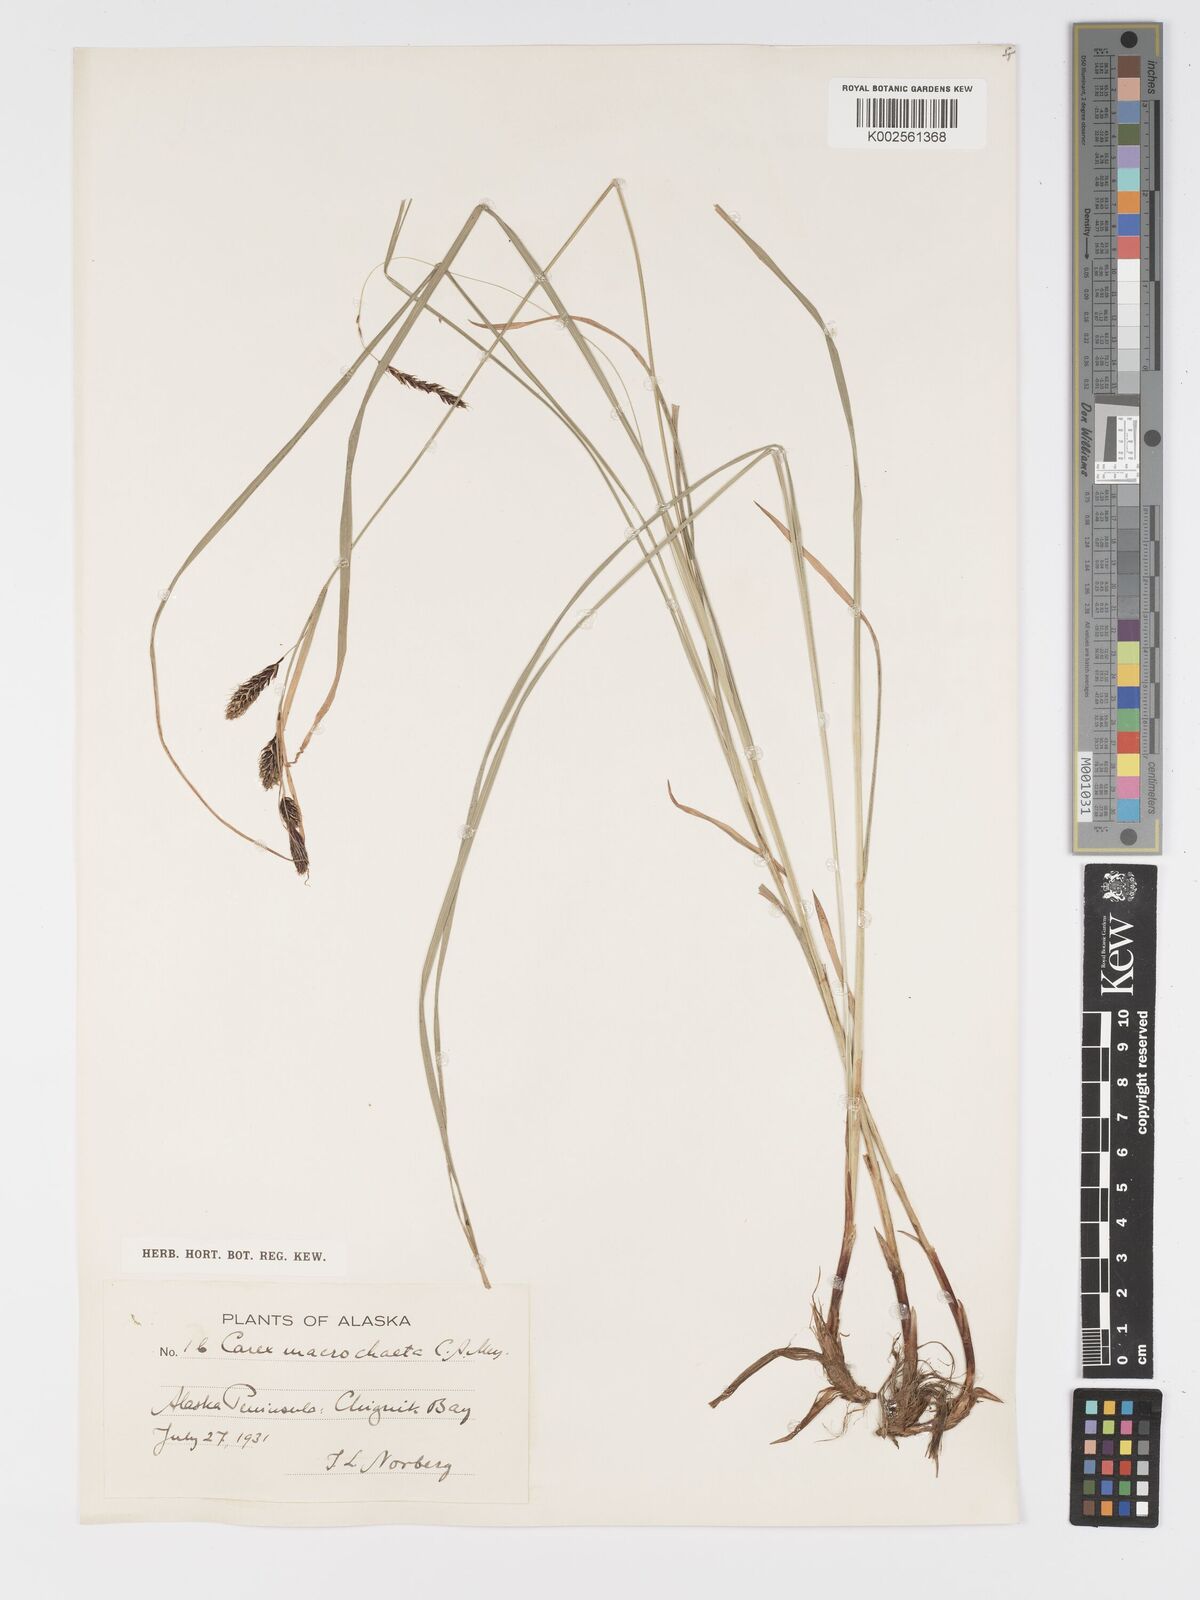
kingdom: Plantae
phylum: Tracheophyta
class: Liliopsida
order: Poales
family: Cyperaceae
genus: Carex
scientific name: Carex macrochaeta
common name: Alaska large awn sedge
